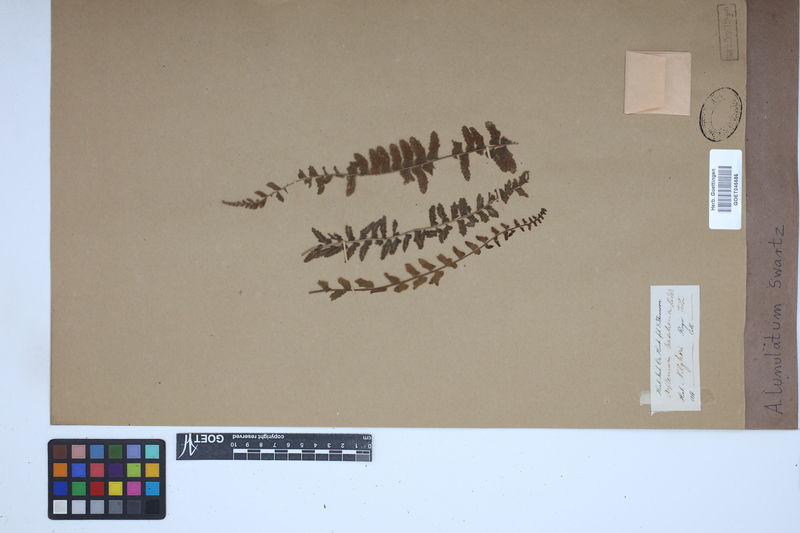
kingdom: Plantae
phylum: Tracheophyta
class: Polypodiopsida
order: Polypodiales
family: Aspleniaceae
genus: Asplenium
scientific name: Asplenium lunulatum
